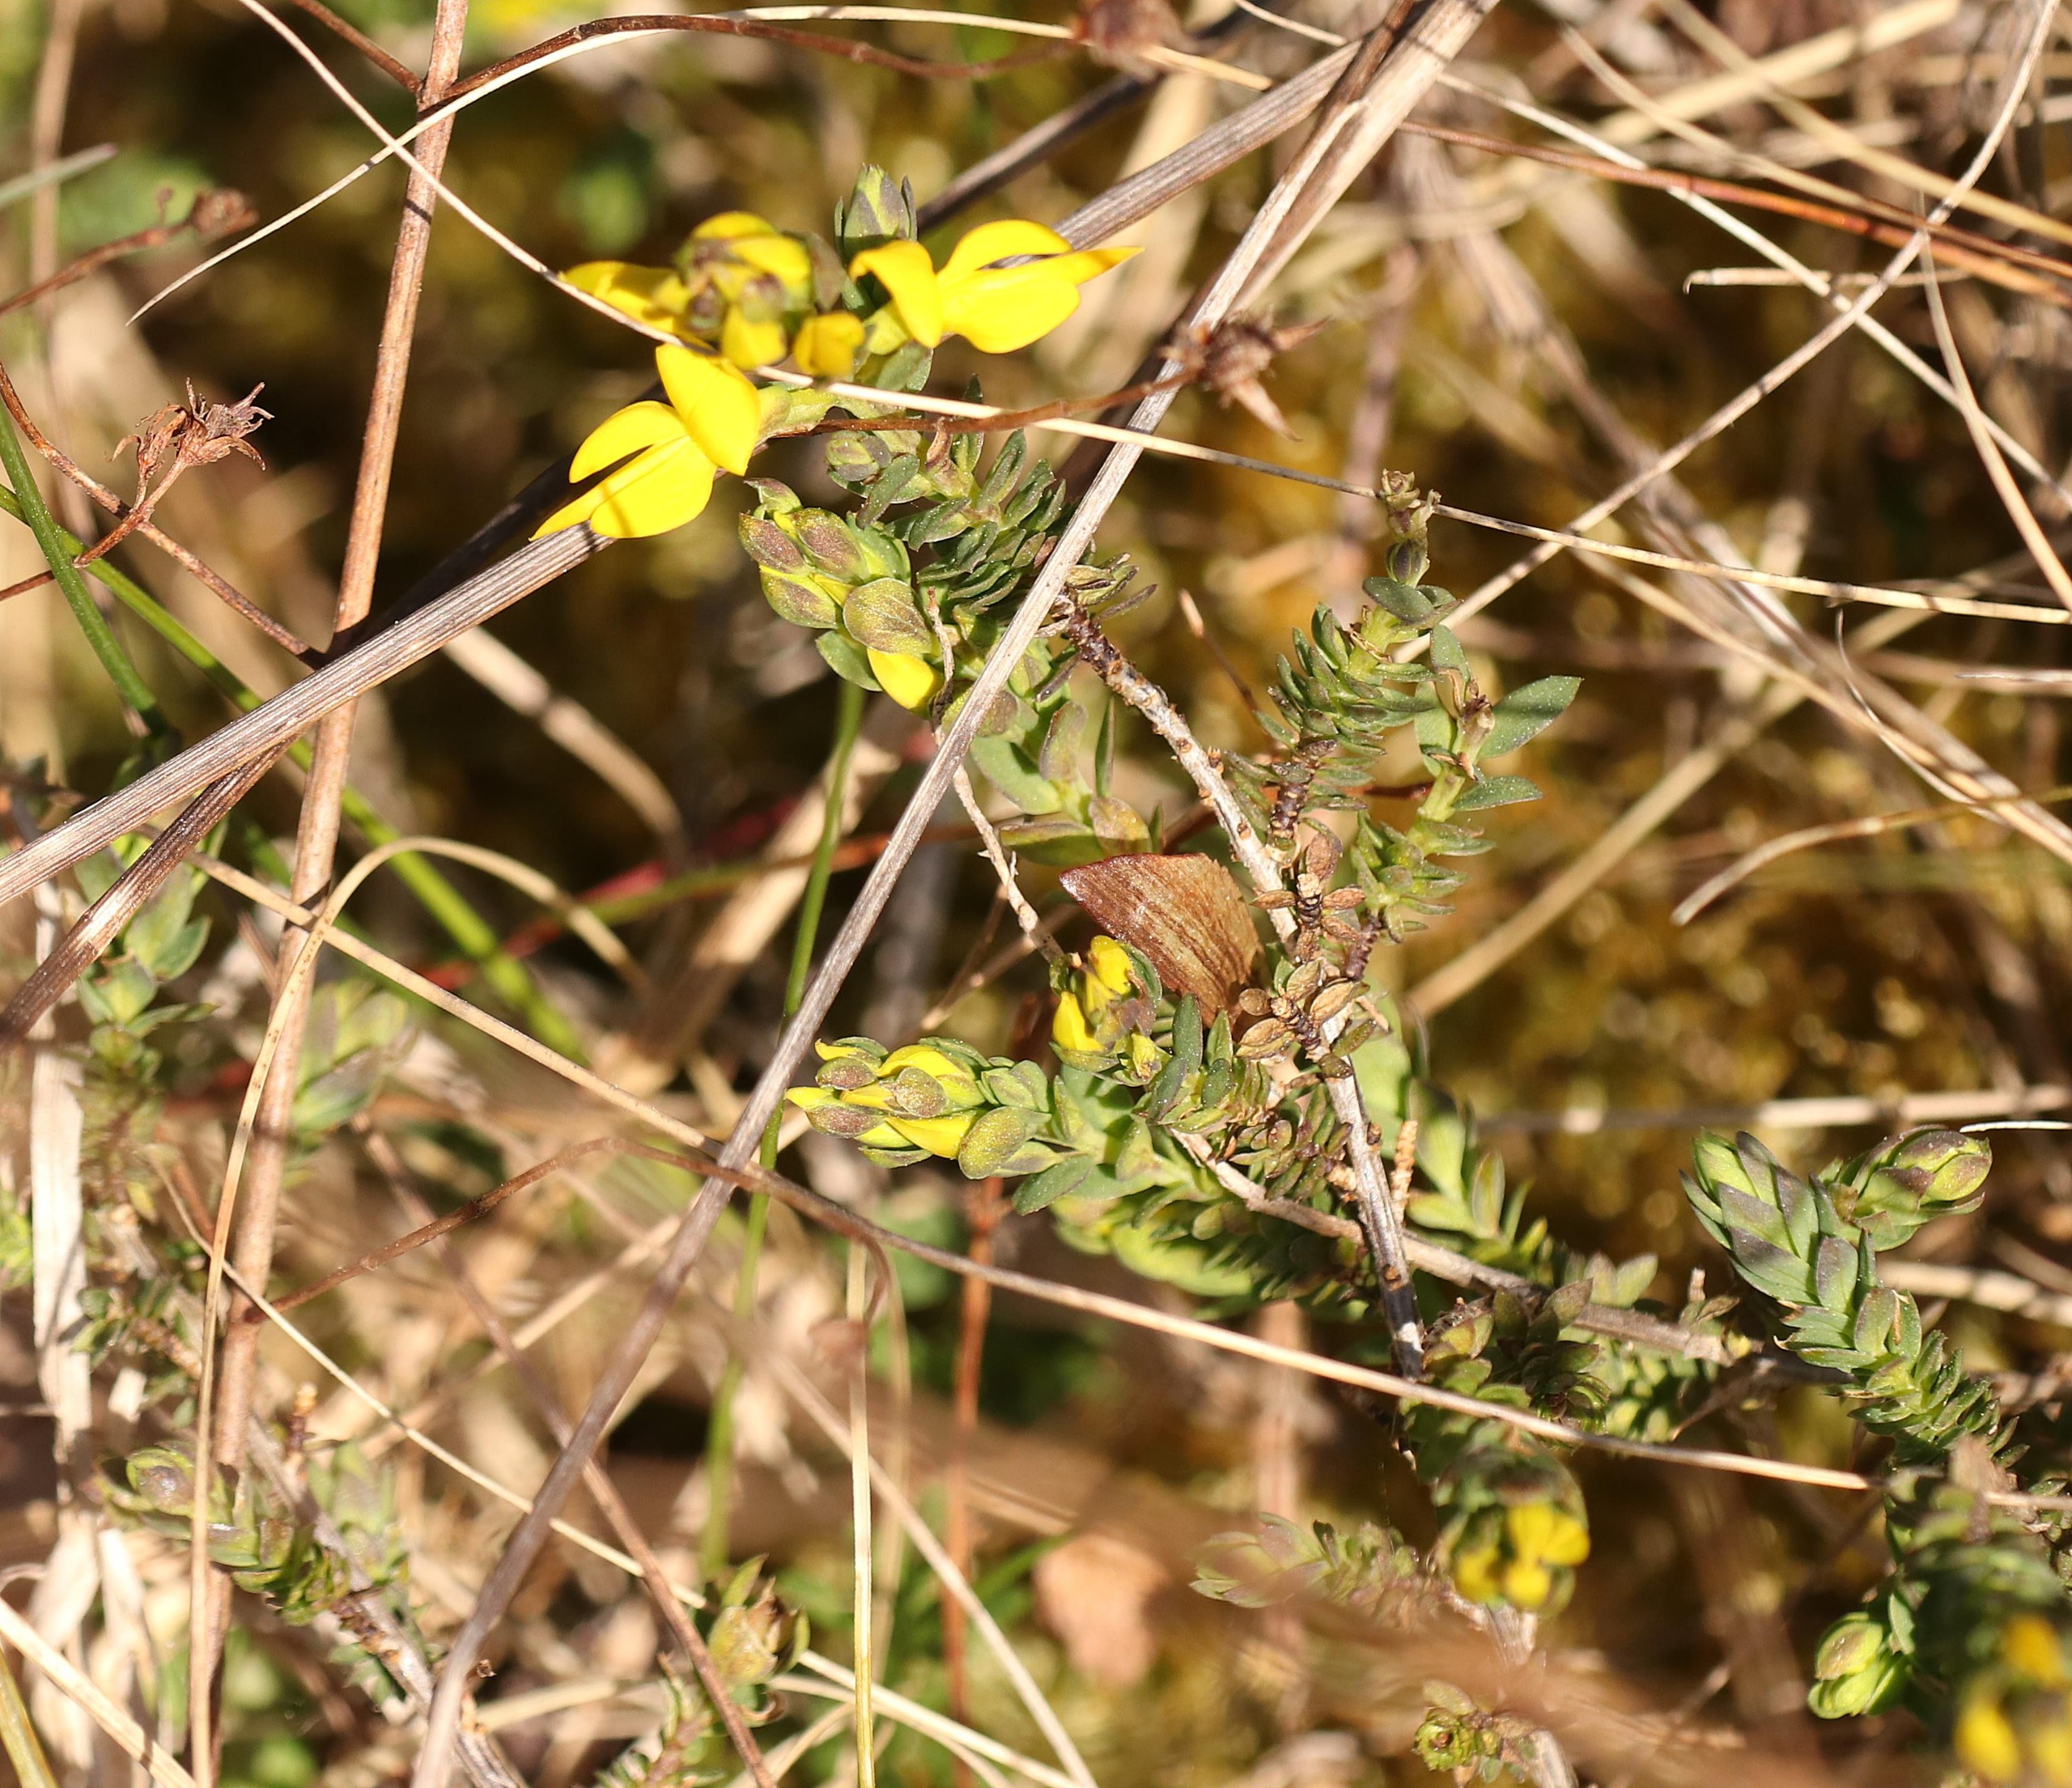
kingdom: Plantae
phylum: Tracheophyta
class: Magnoliopsida
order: Fabales
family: Fabaceae
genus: Genista
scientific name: Genista anglica
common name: Engelsk visse
